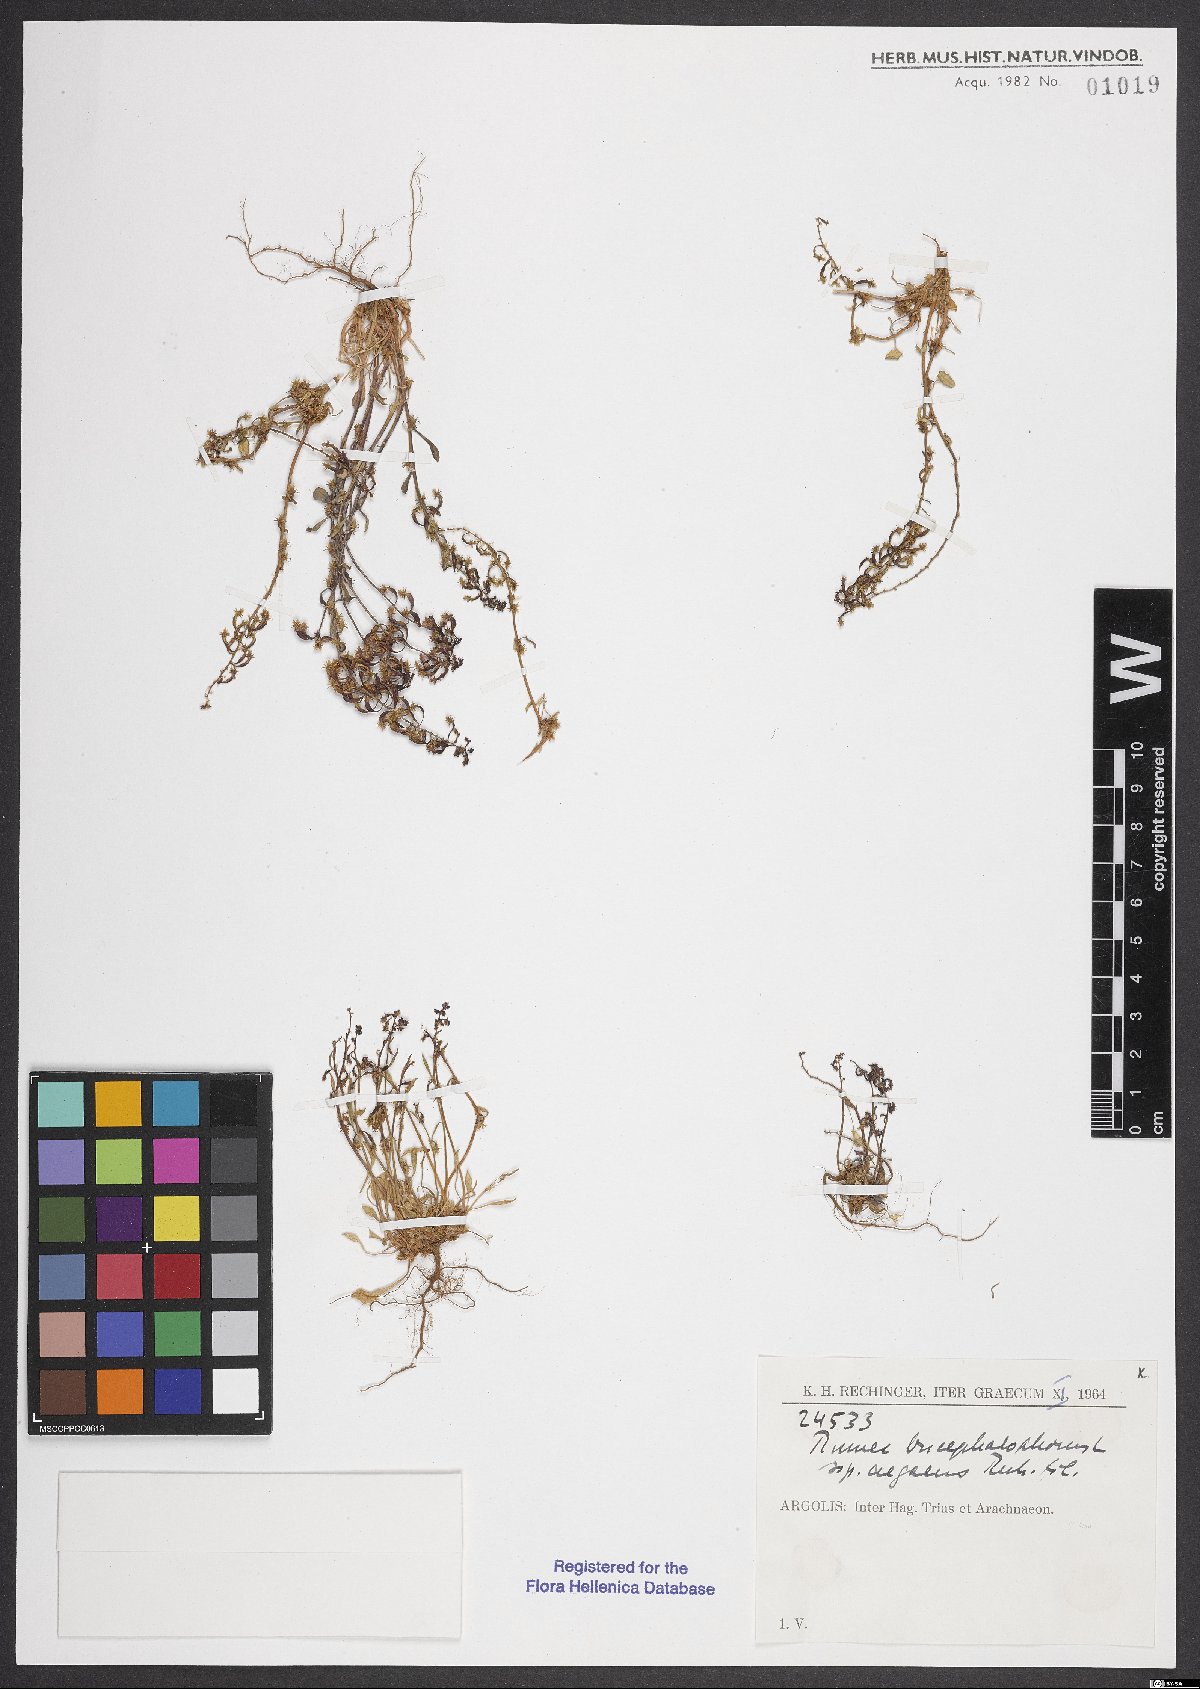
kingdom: Plantae
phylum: Tracheophyta
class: Magnoliopsida
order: Caryophyllales
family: Polygonaceae
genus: Rumex
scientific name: Rumex bucephalophorus
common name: Red dock
